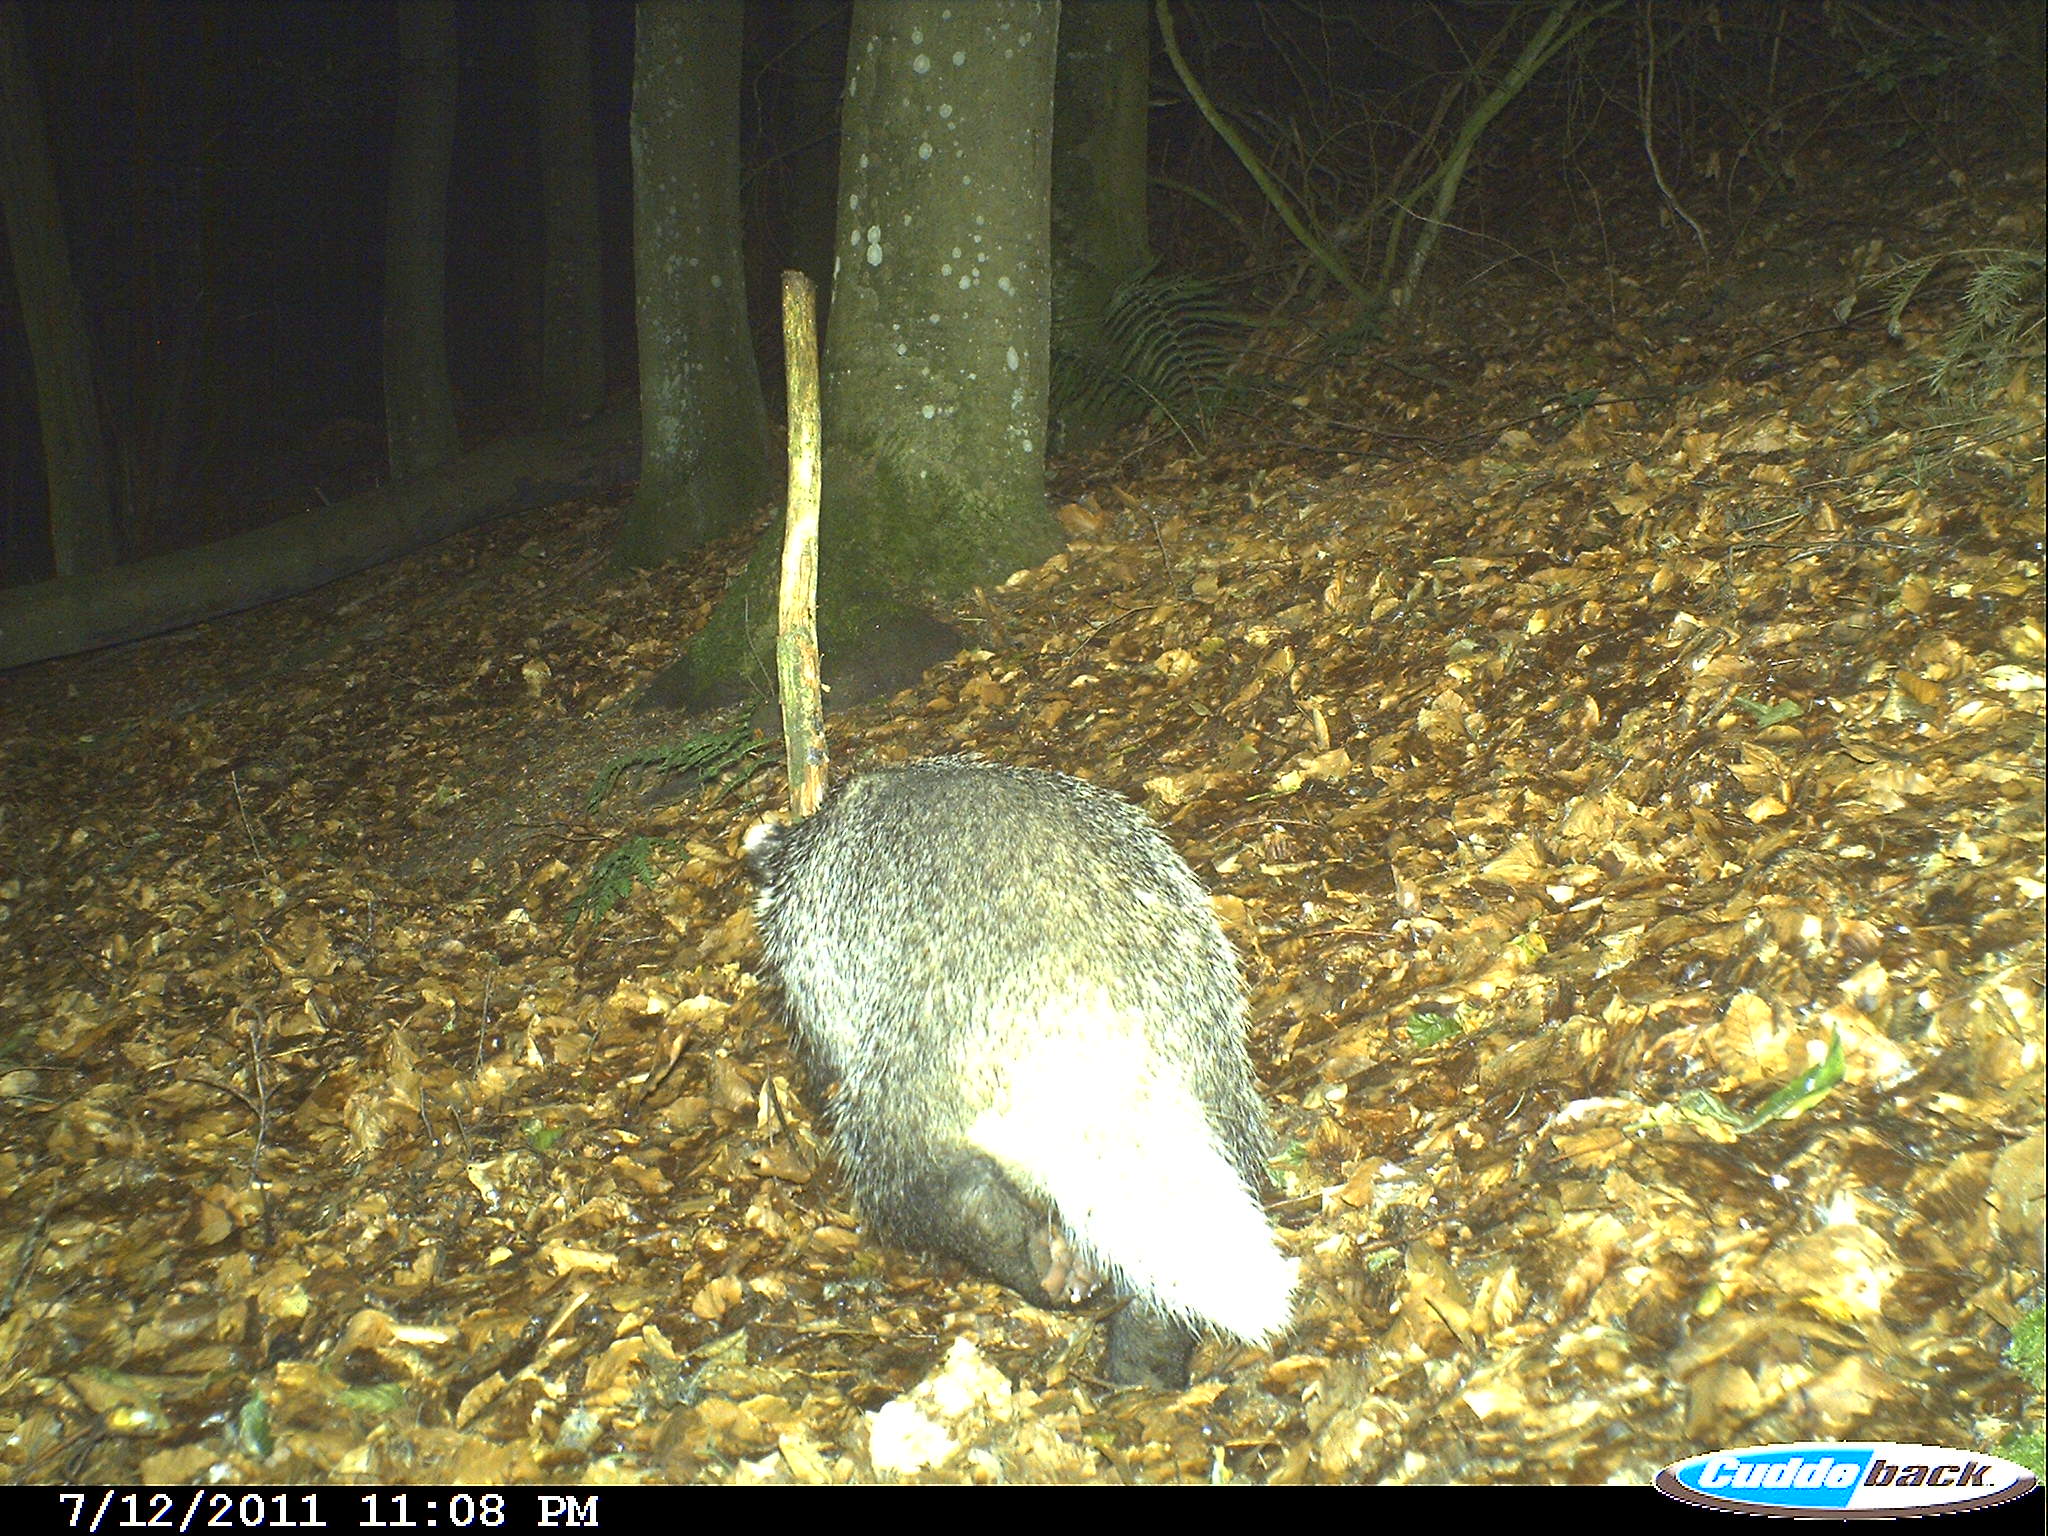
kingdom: Animalia
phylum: Chordata
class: Mammalia
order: Carnivora
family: Mustelidae
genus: Meles
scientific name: Meles meles
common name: Eurasian badger
